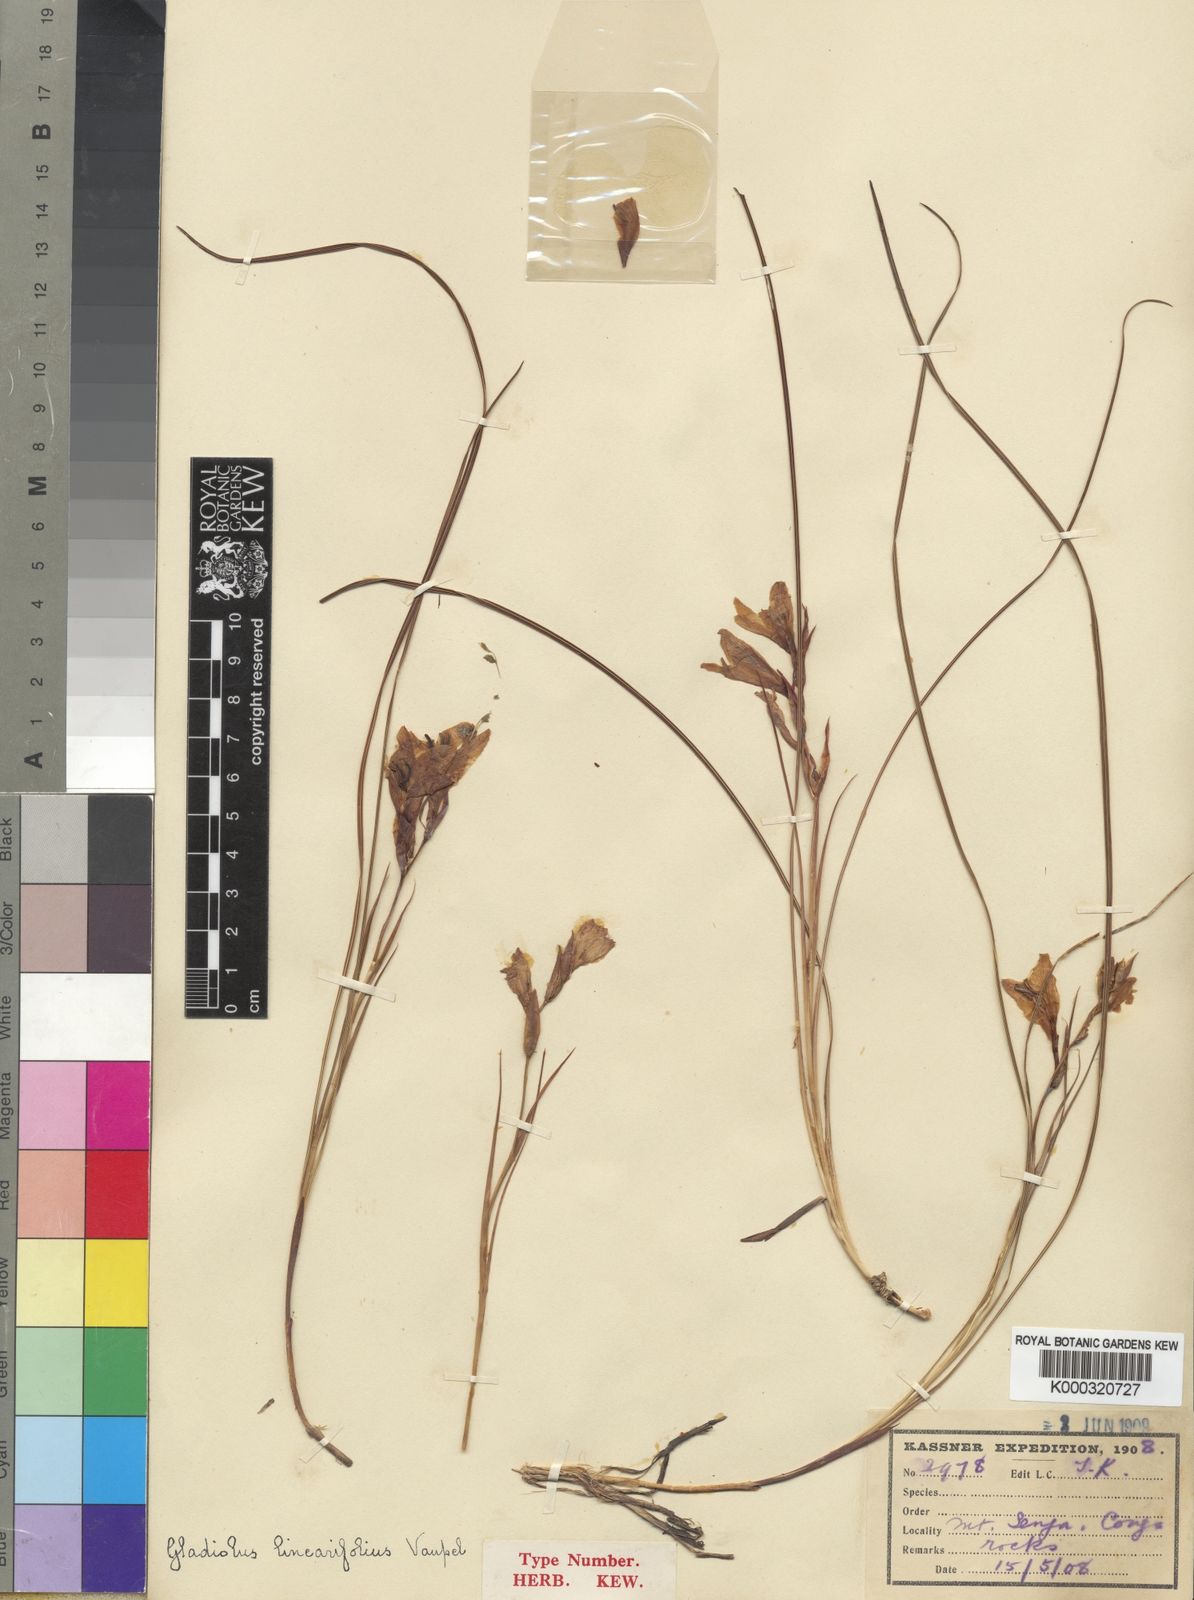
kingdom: Plantae
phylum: Tracheophyta
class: Liliopsida
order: Asparagales
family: Iridaceae
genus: Gladiolus
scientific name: Gladiolus linearifolius
